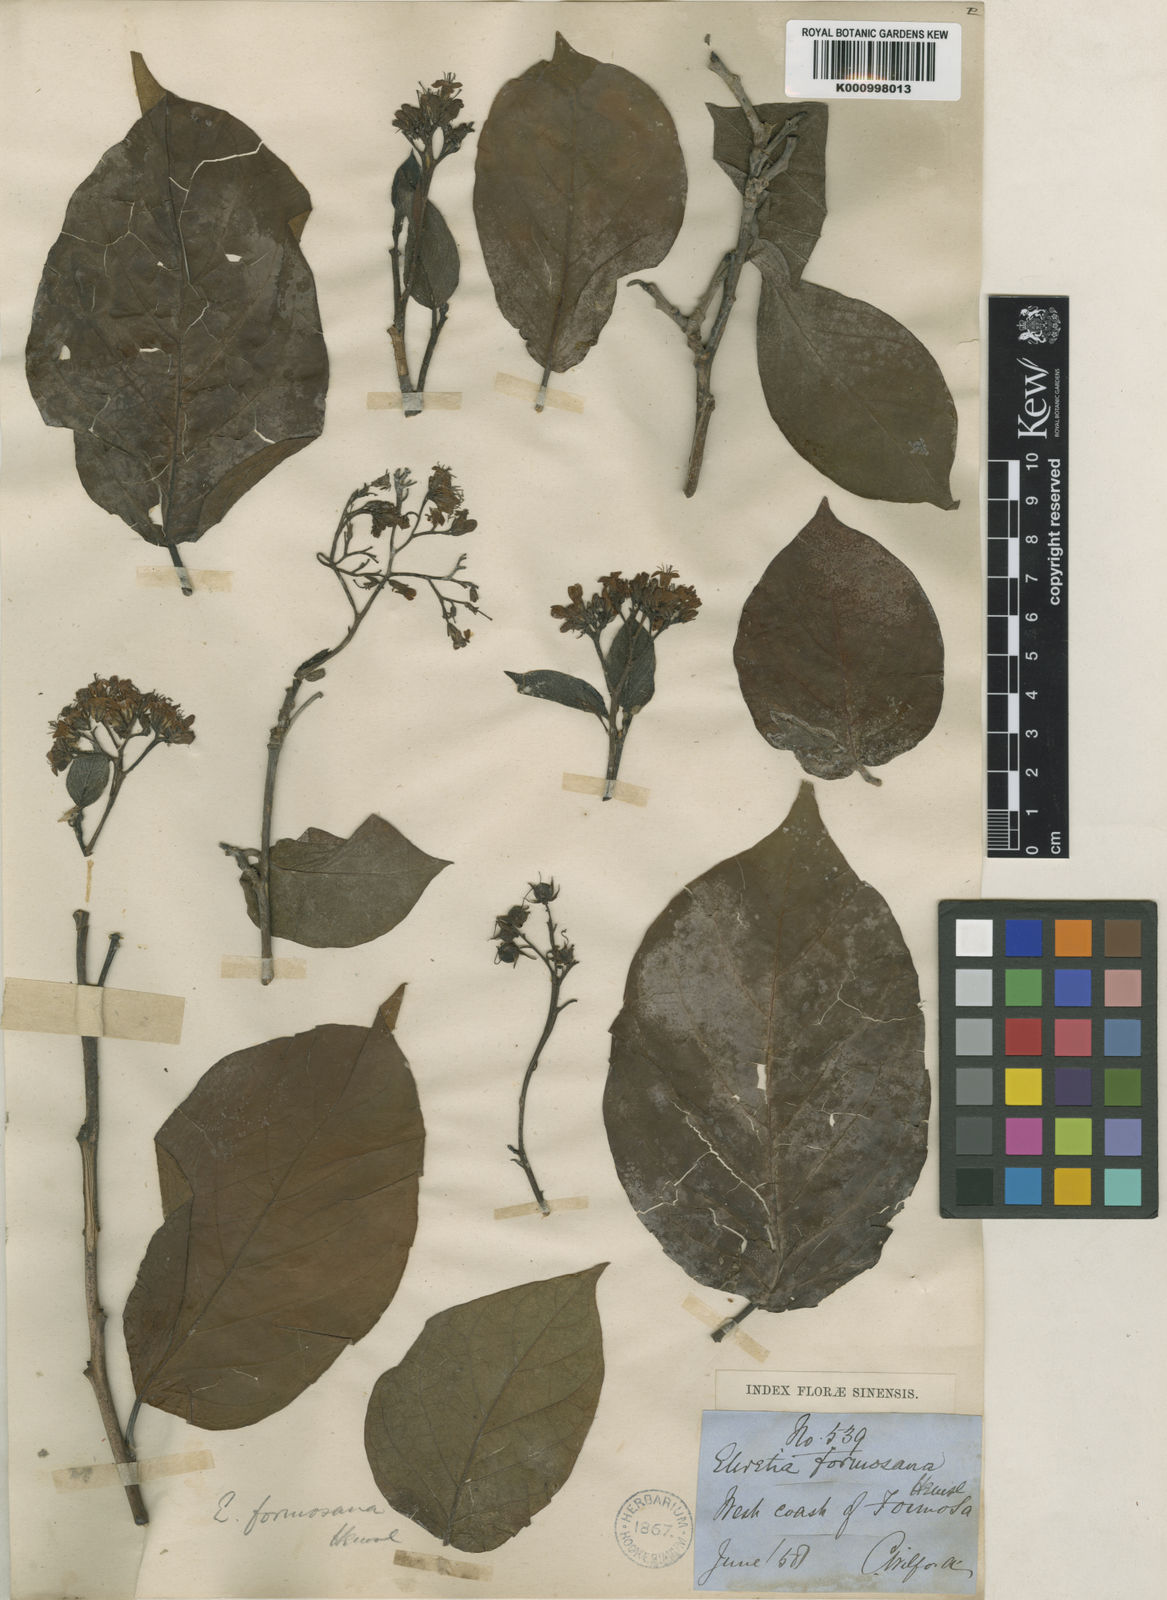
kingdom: Plantae
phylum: Tracheophyta
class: Magnoliopsida
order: Boraginales
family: Ehretiaceae
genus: Ehretia
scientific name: Ehretia resinosa
